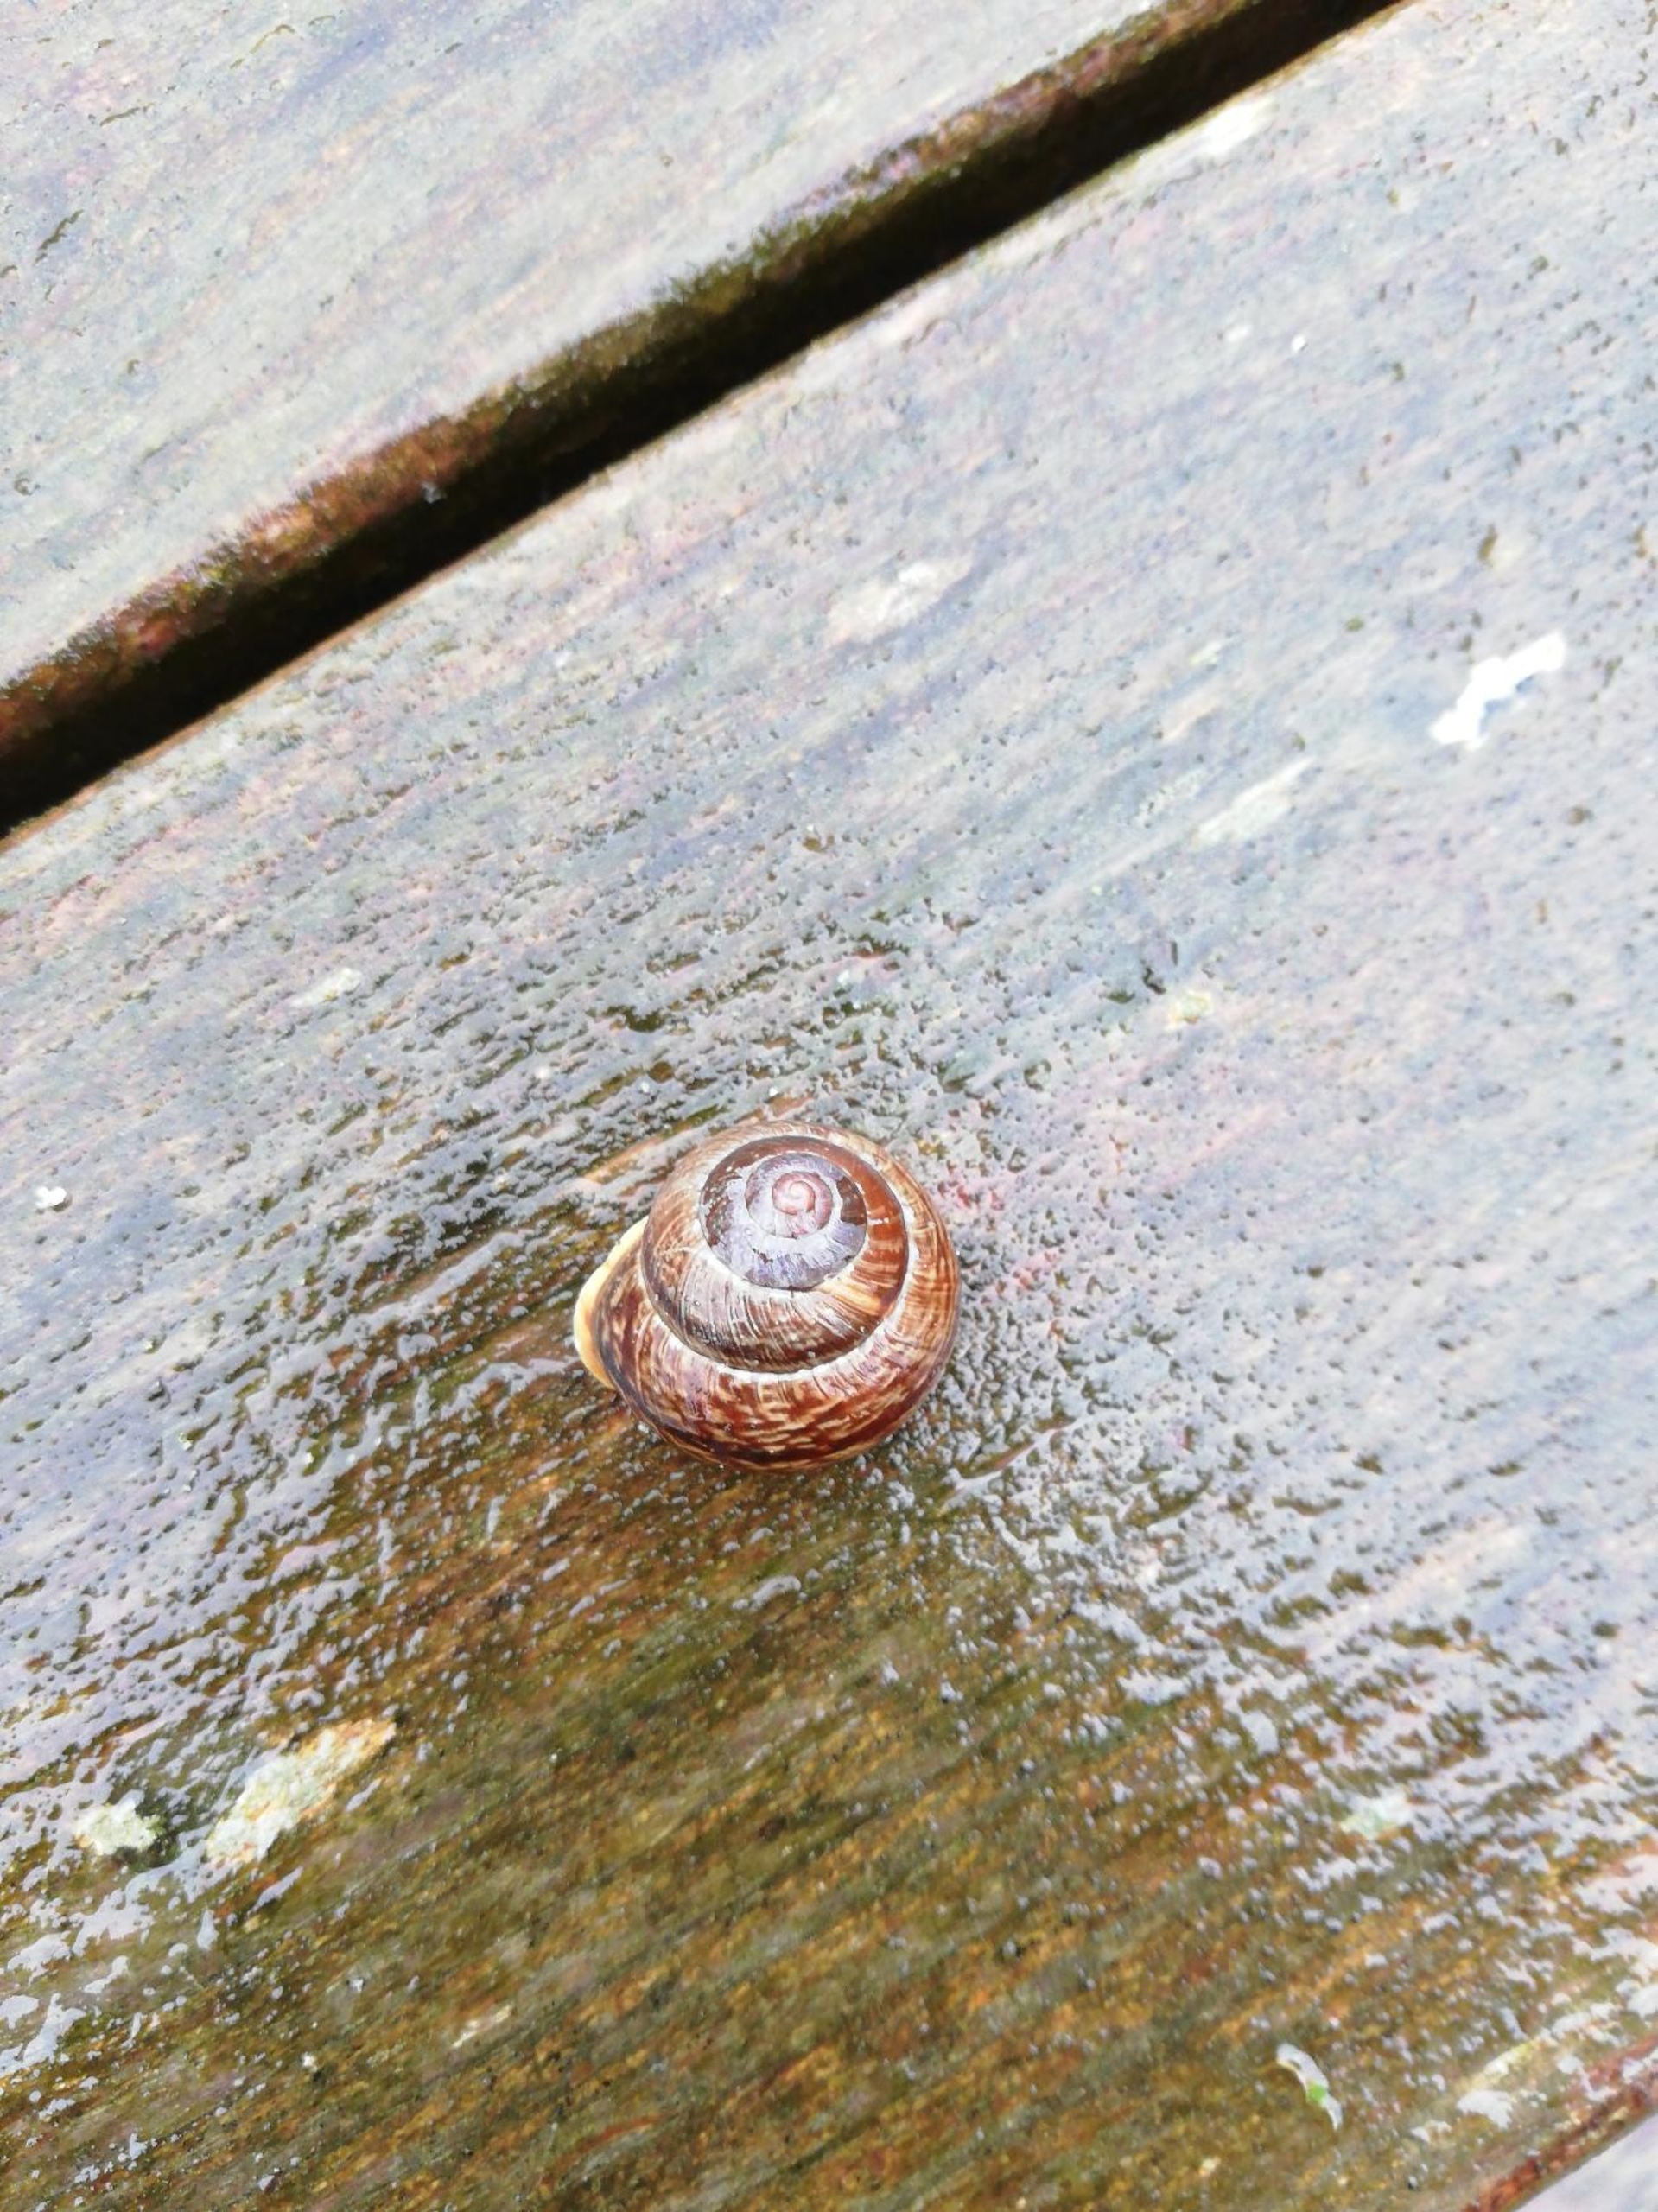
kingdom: Animalia
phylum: Mollusca
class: Gastropoda
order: Stylommatophora
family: Helicidae
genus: Arianta
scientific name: Arianta arbustorum
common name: Kratsnegl
